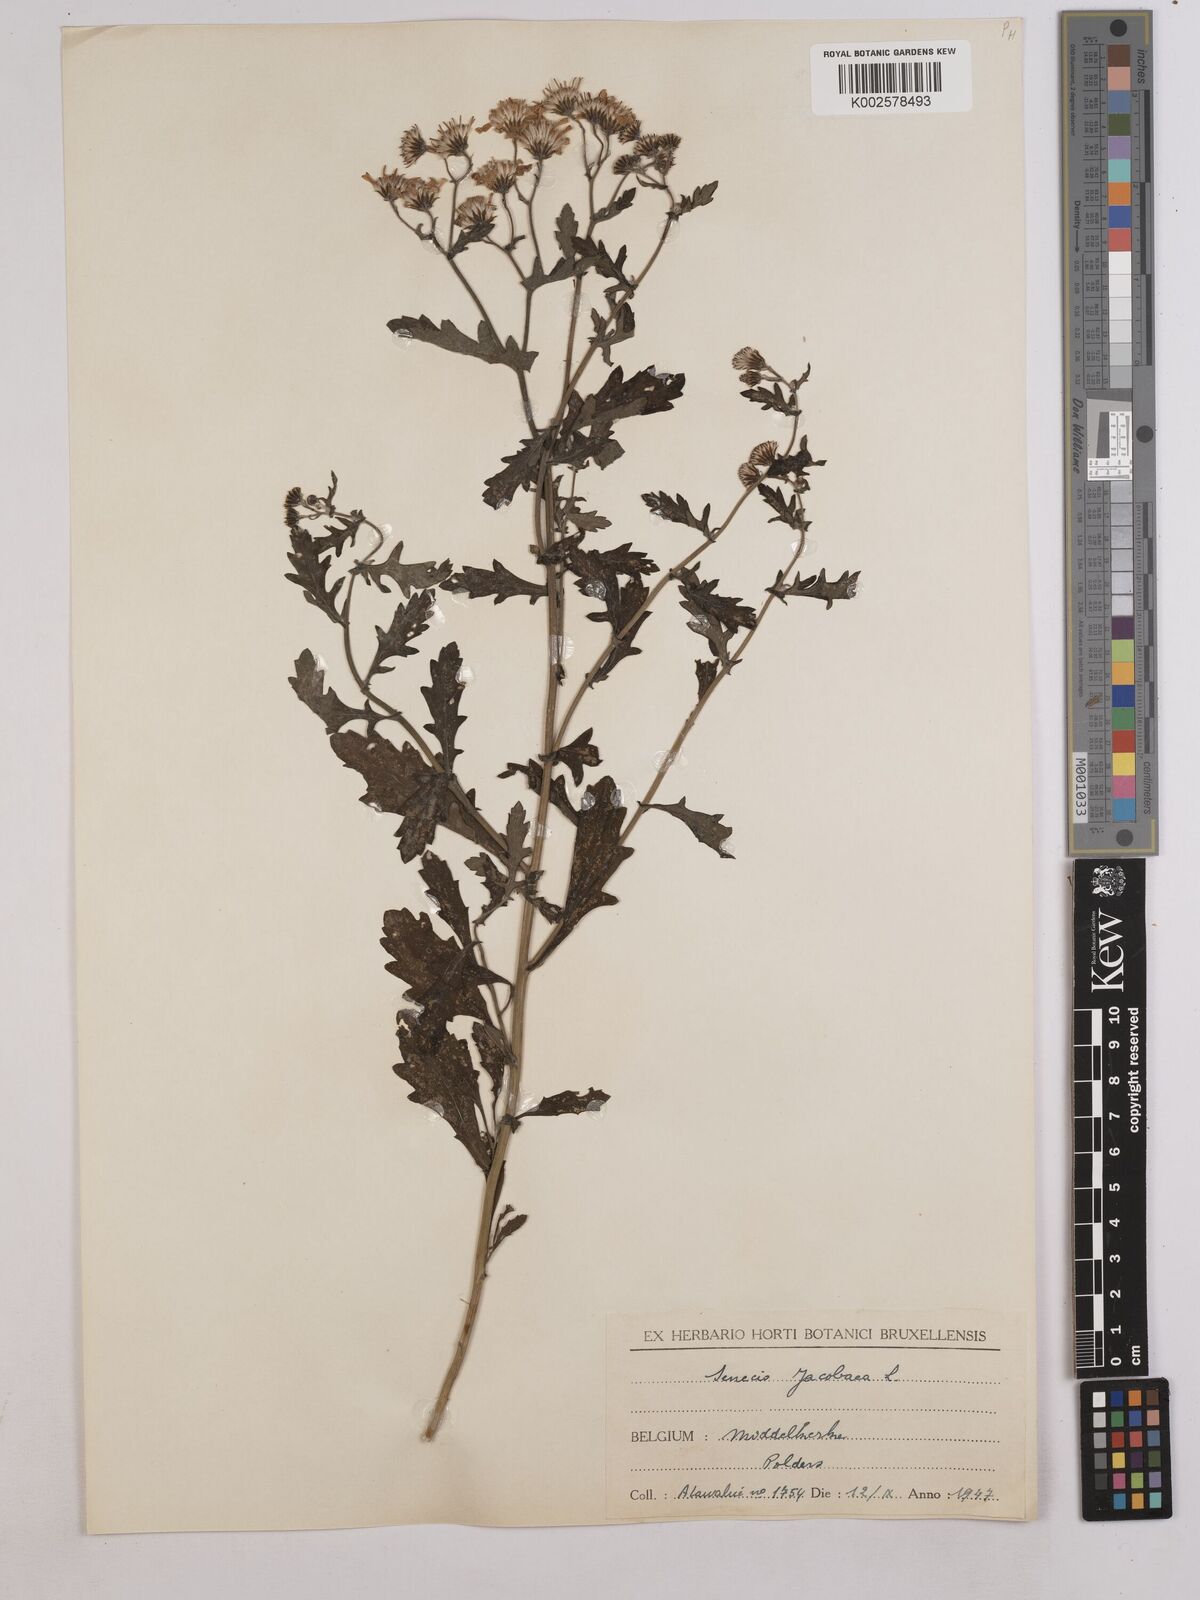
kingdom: Plantae
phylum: Tracheophyta
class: Magnoliopsida
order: Asterales
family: Asteraceae
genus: Jacobaea
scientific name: Jacobaea vulgaris
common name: Stinking willie
